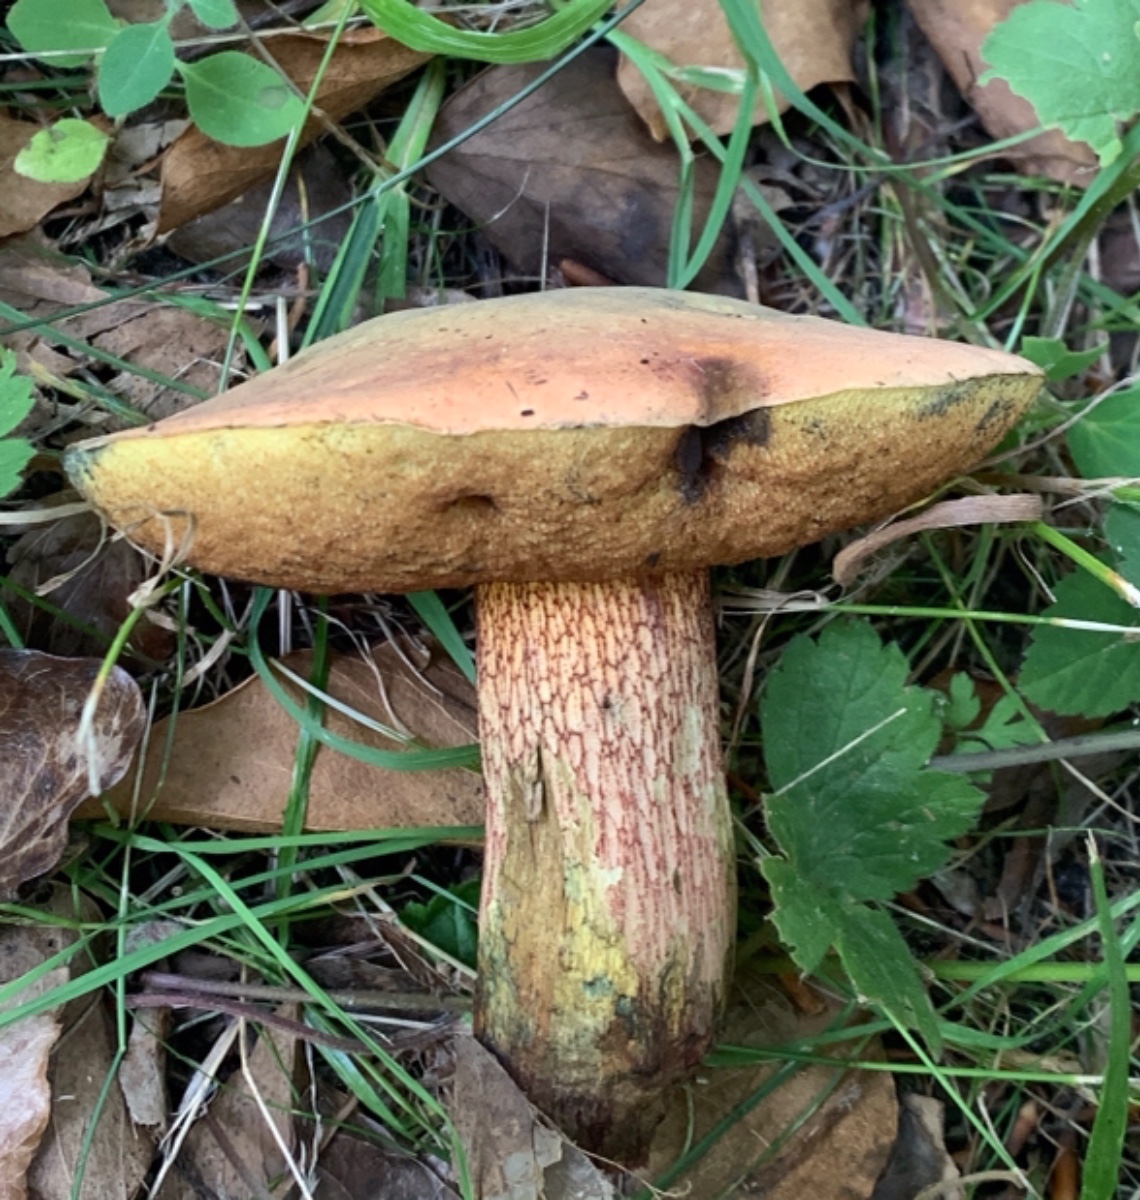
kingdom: Fungi
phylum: Basidiomycota
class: Agaricomycetes
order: Boletales
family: Boletaceae
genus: Suillellus
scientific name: Suillellus luridus
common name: netstokket indigorørhat
